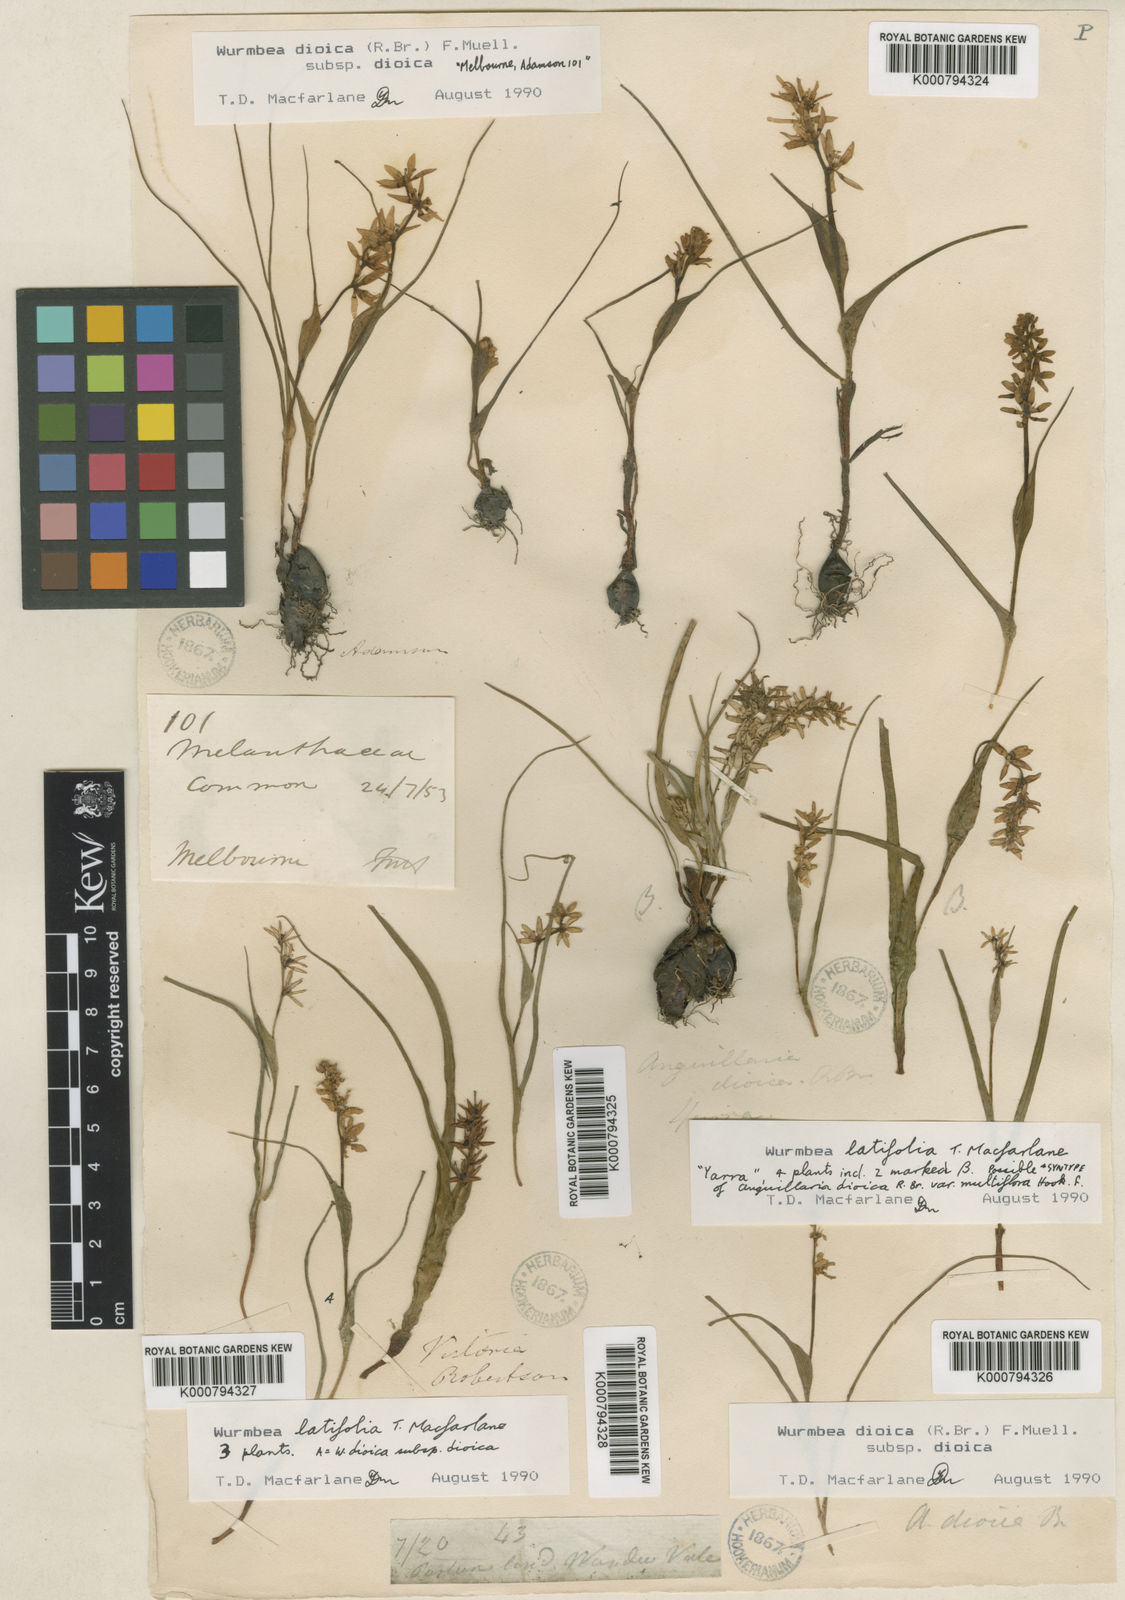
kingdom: Plantae
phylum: Tracheophyta
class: Liliopsida
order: Liliales
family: Colchicaceae
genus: Wurmbea
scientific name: Wurmbea latifolia
